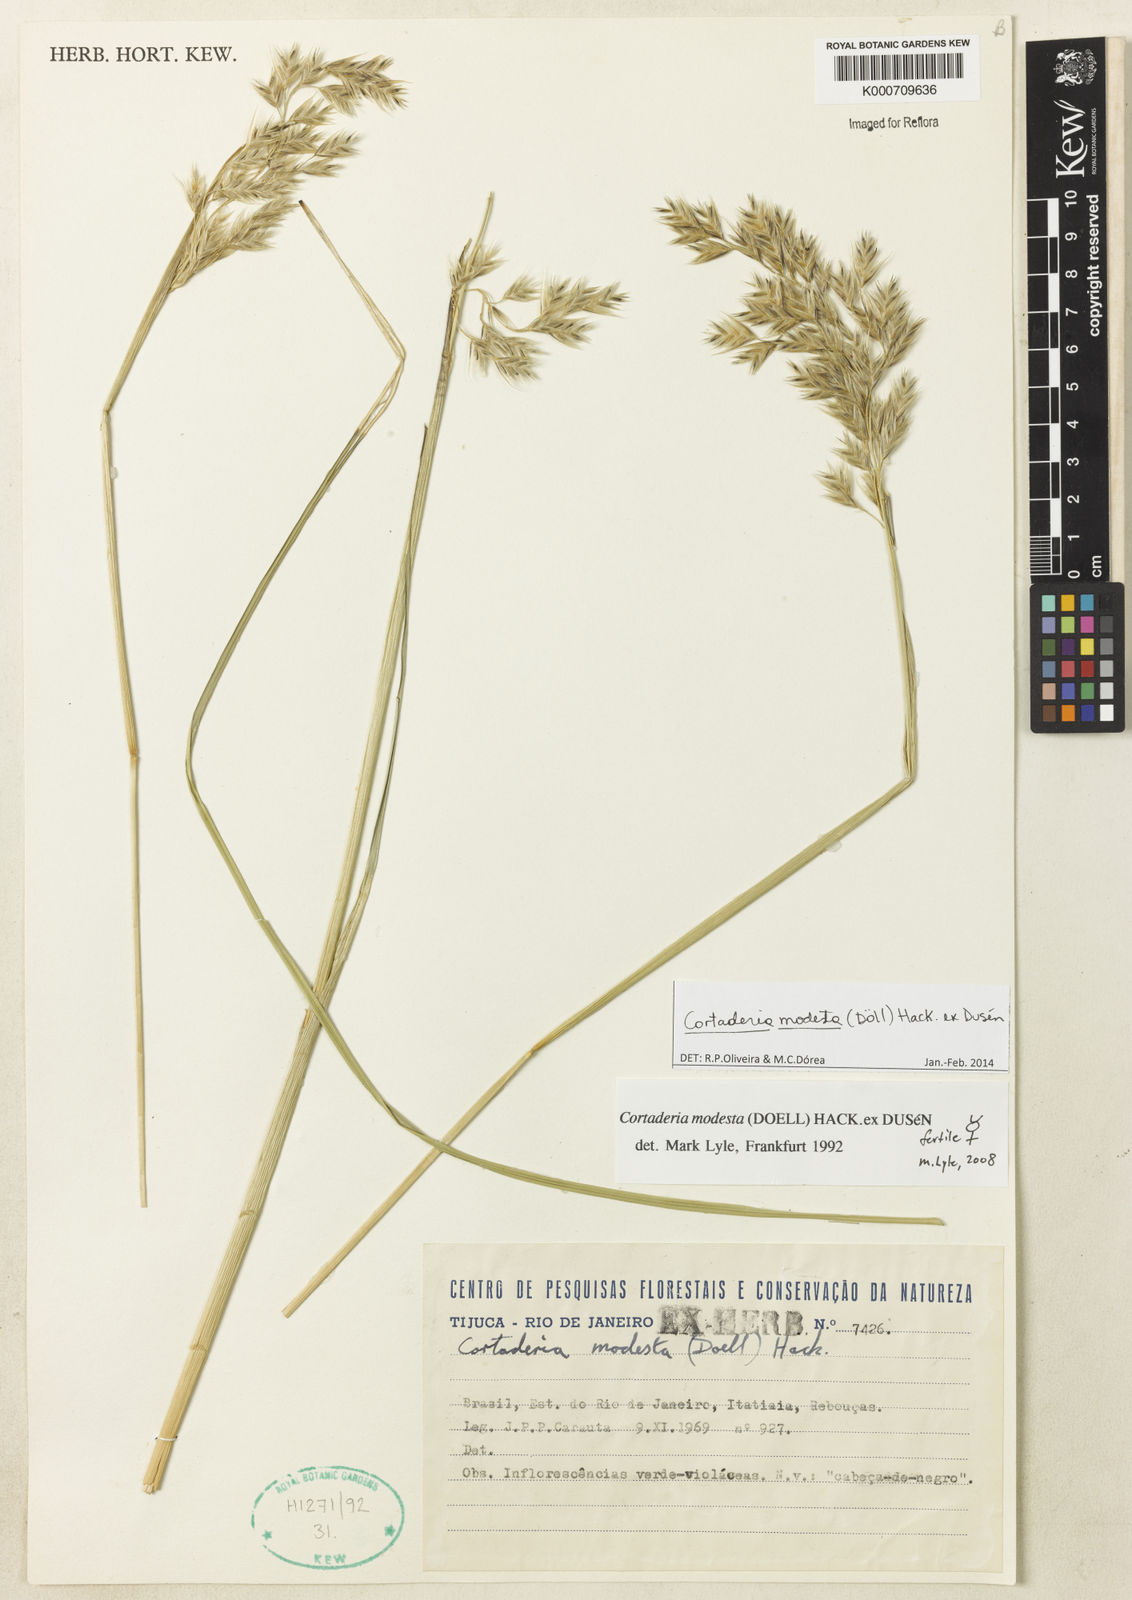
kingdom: Plantae
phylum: Tracheophyta
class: Liliopsida
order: Poales
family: Poaceae
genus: Cortaderia
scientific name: Cortaderia
